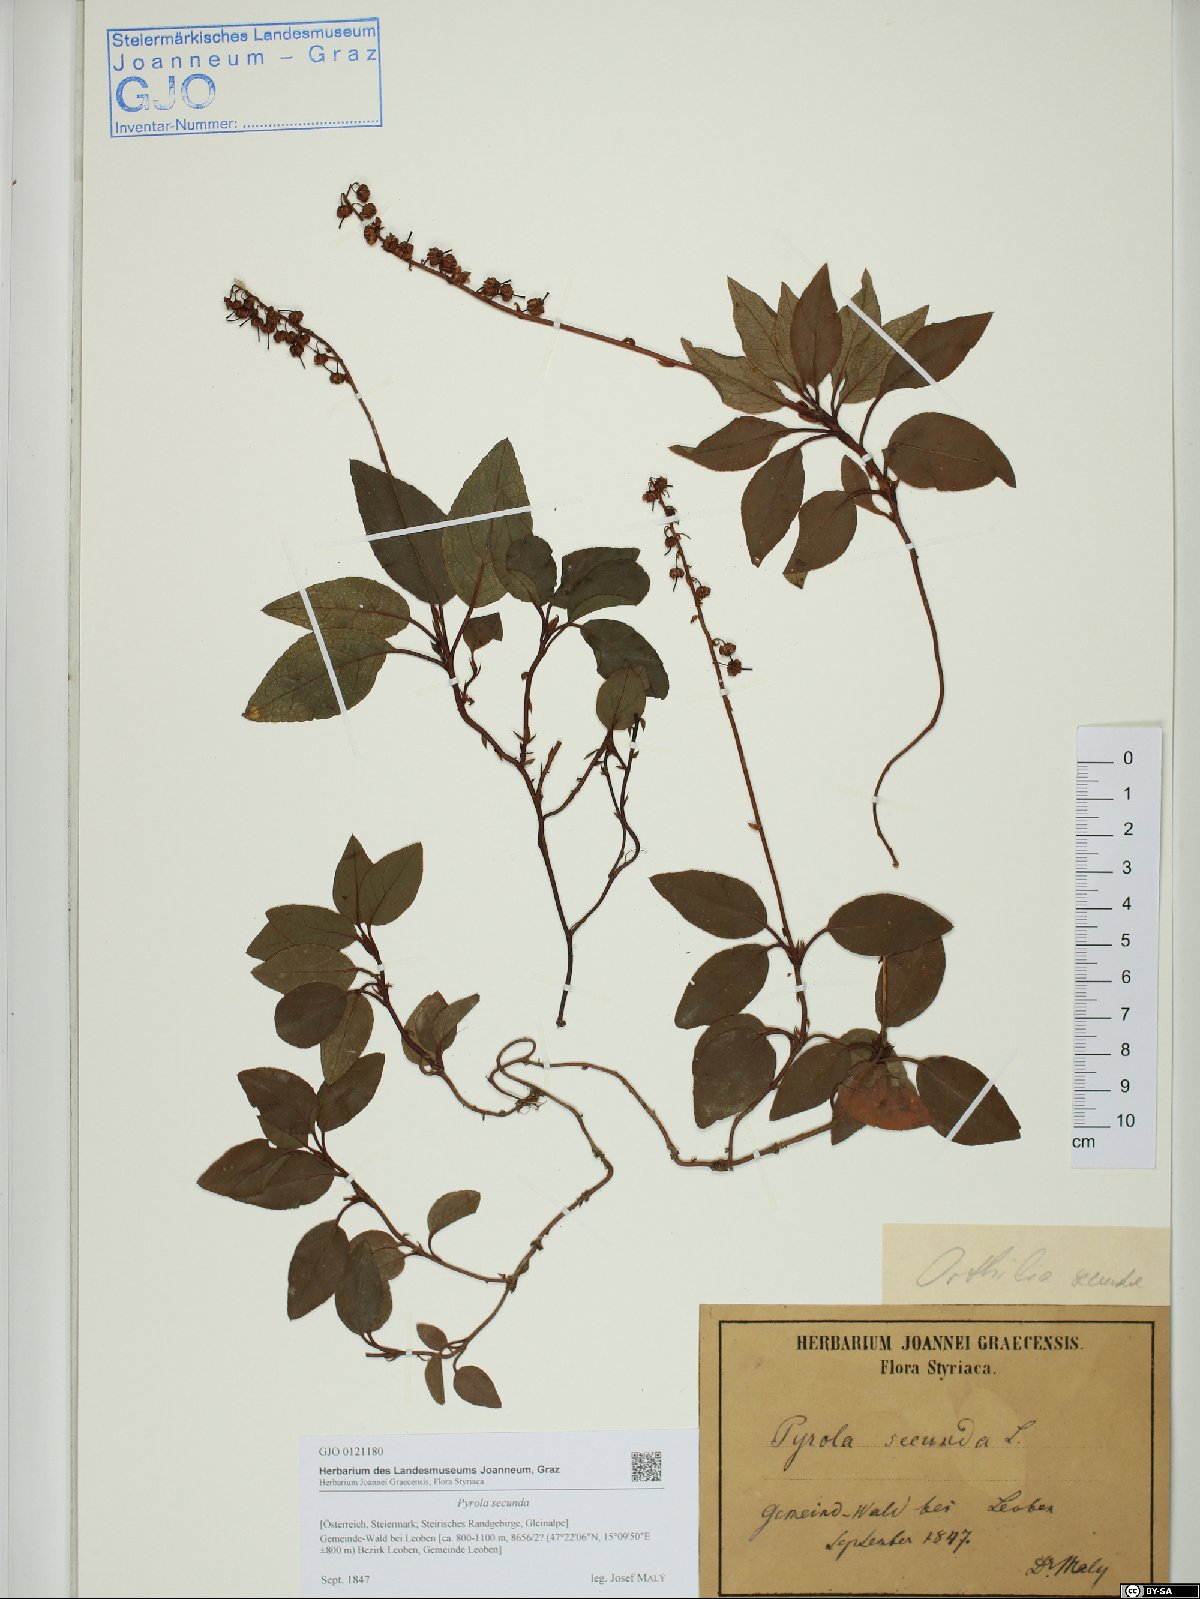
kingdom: Plantae
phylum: Tracheophyta
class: Magnoliopsida
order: Ericales
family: Ericaceae
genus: Orthilia
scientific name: Orthilia secunda
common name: One-sided orthilia
